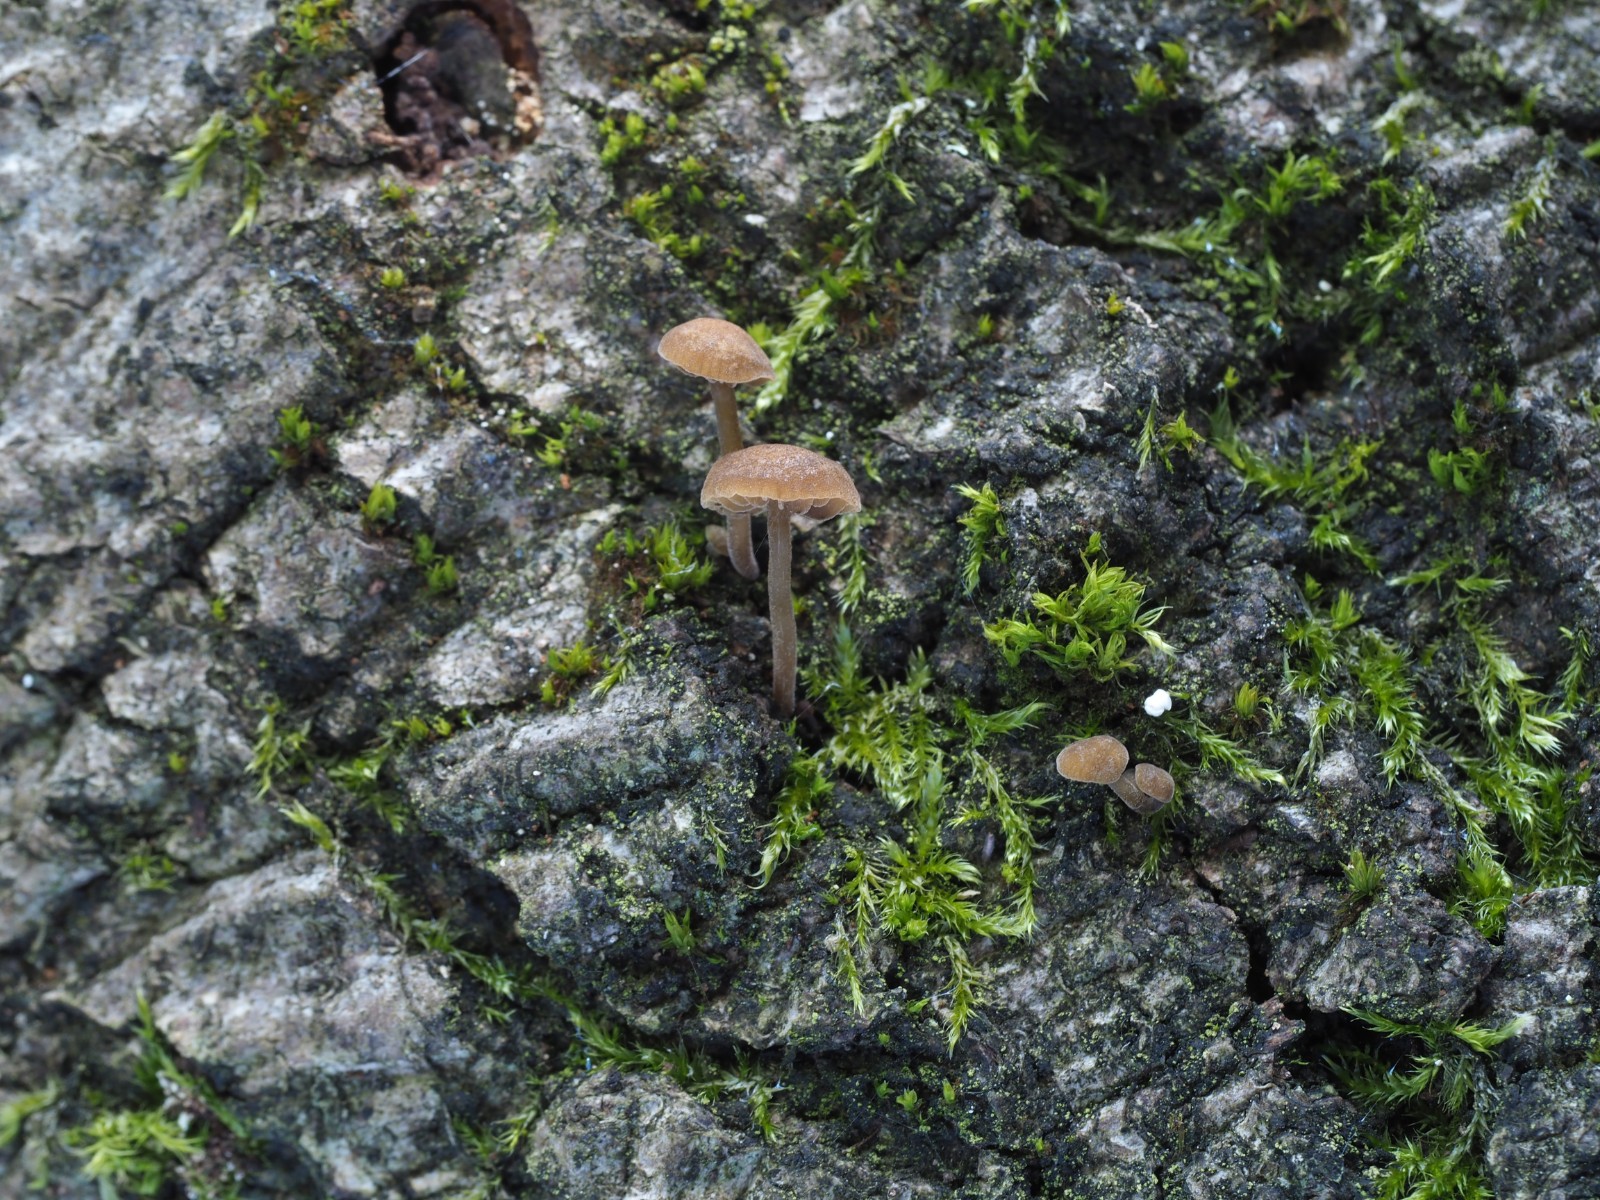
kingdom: Fungi
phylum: Basidiomycota
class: Agaricomycetes
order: Agaricales
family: Crepidotaceae
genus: Simocybe
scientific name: Simocybe centunculus
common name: enlig skyggehat
